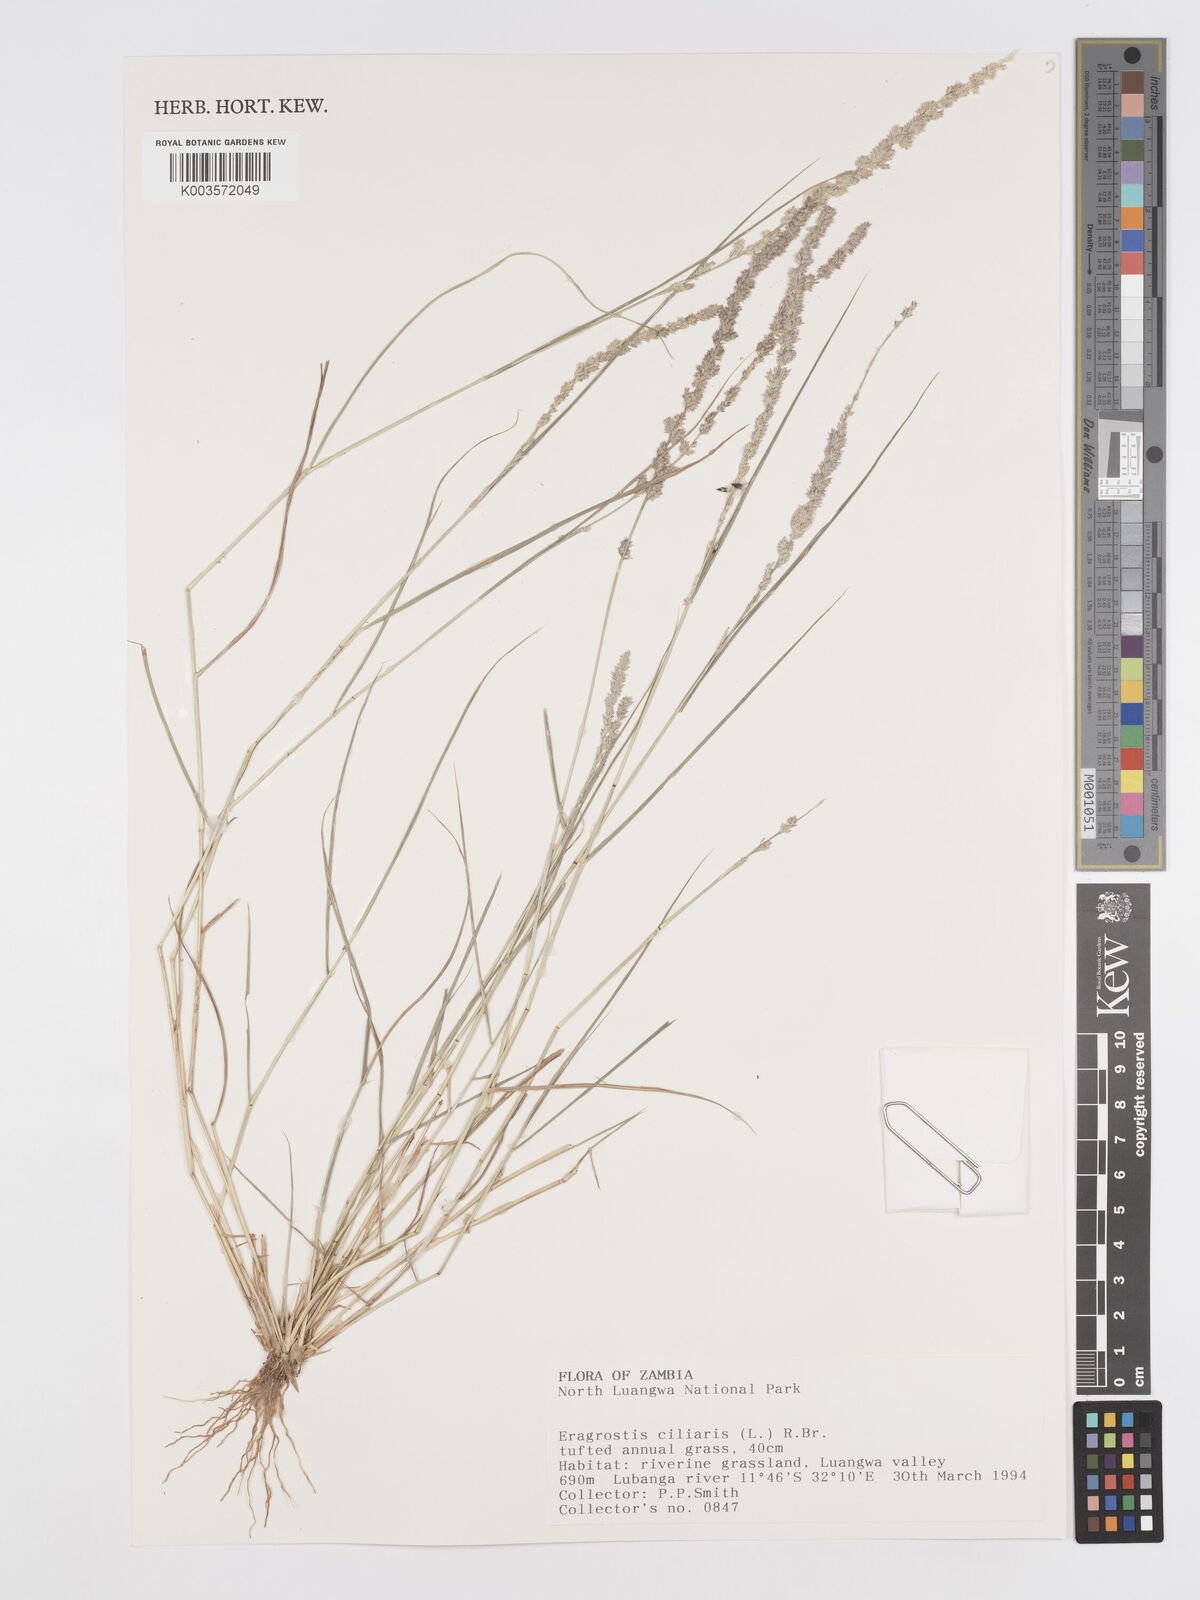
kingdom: Plantae
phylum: Tracheophyta
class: Liliopsida
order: Poales
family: Poaceae
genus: Eragrostis
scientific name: Eragrostis ciliaris
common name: Gophertail lovegrass
